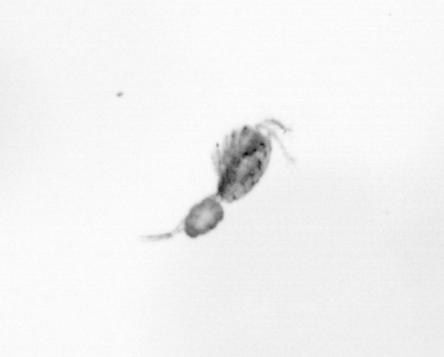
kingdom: Animalia
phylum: Arthropoda
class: Copepoda
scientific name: Copepoda
